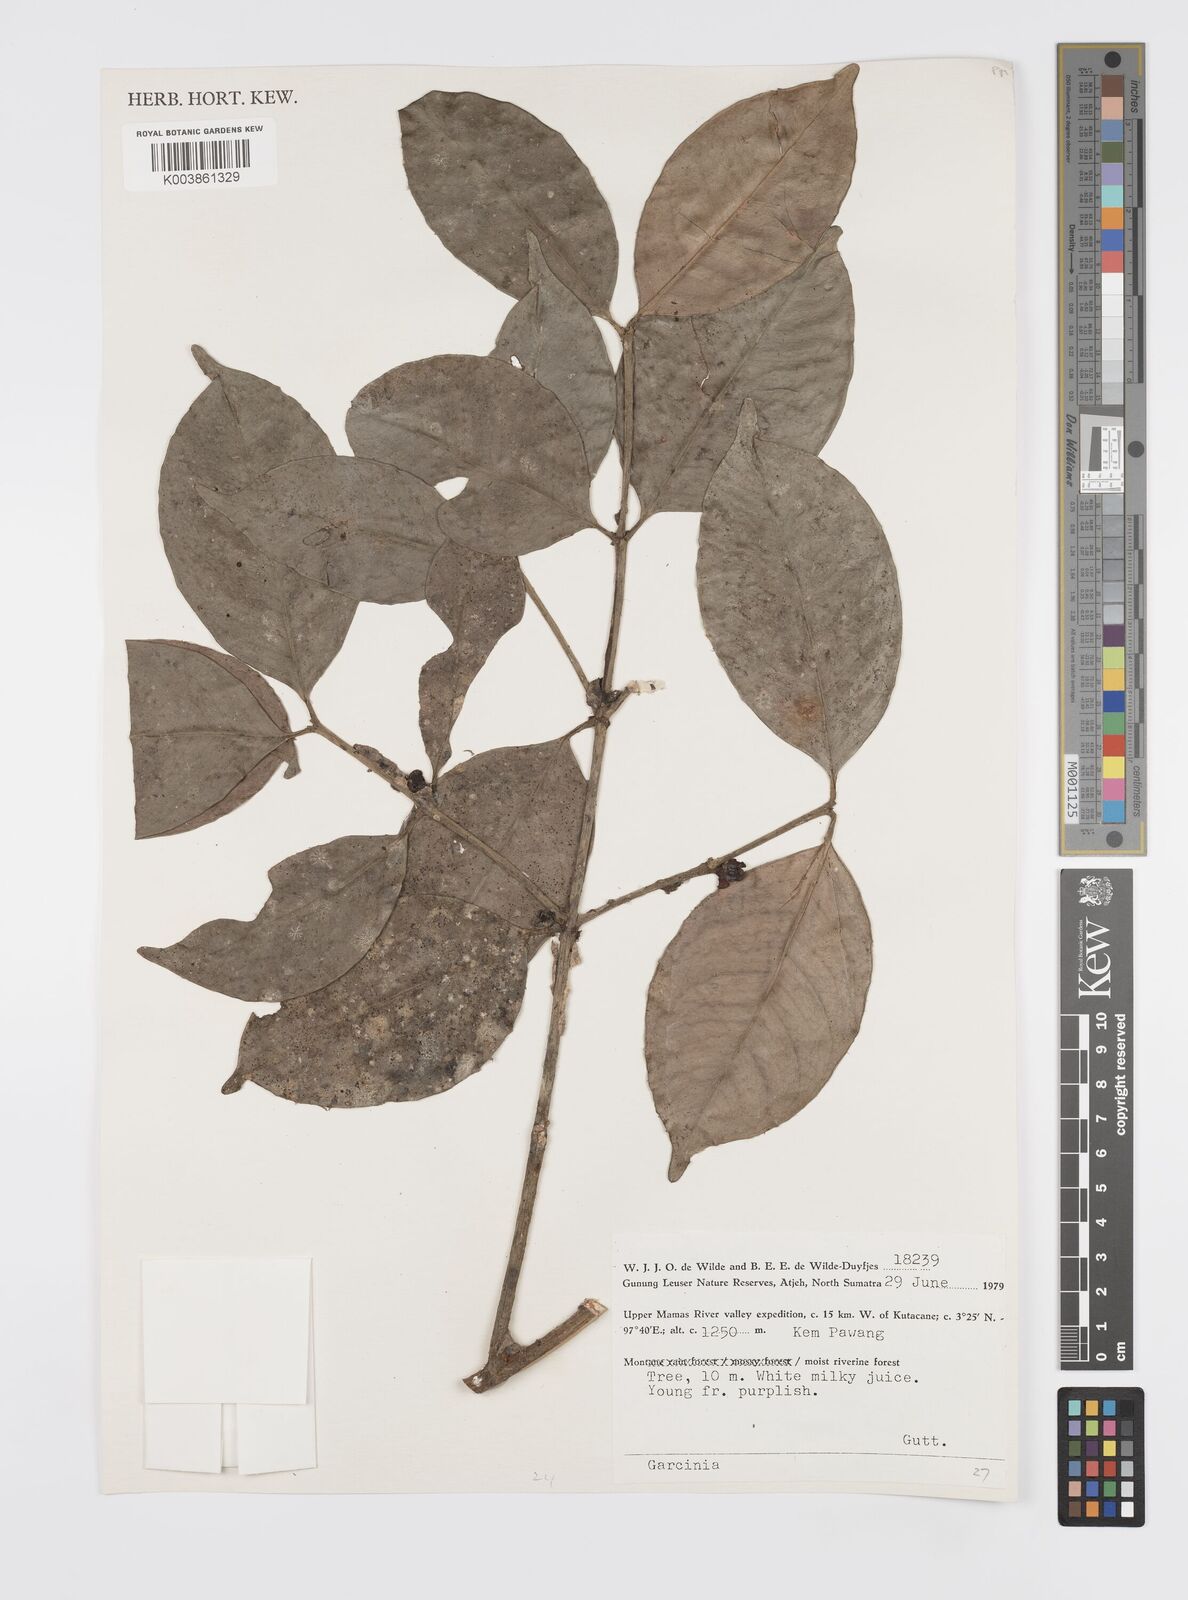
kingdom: Plantae
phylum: Tracheophyta
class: Magnoliopsida
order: Malpighiales
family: Clusiaceae
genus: Garcinia
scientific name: Garcinia
